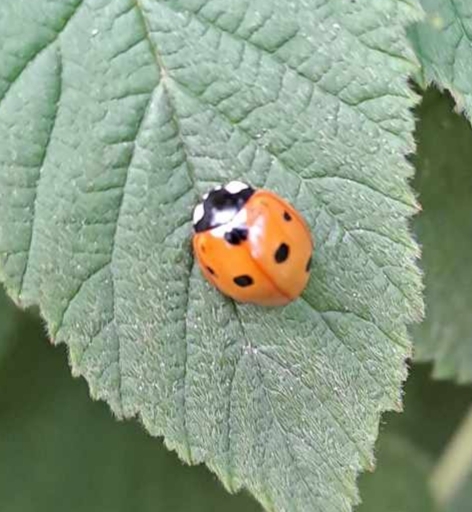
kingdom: Animalia
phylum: Arthropoda
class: Insecta
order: Coleoptera
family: Coccinellidae
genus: Coccinella
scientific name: Coccinella septempunctata
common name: Syvplettet mariehøne
